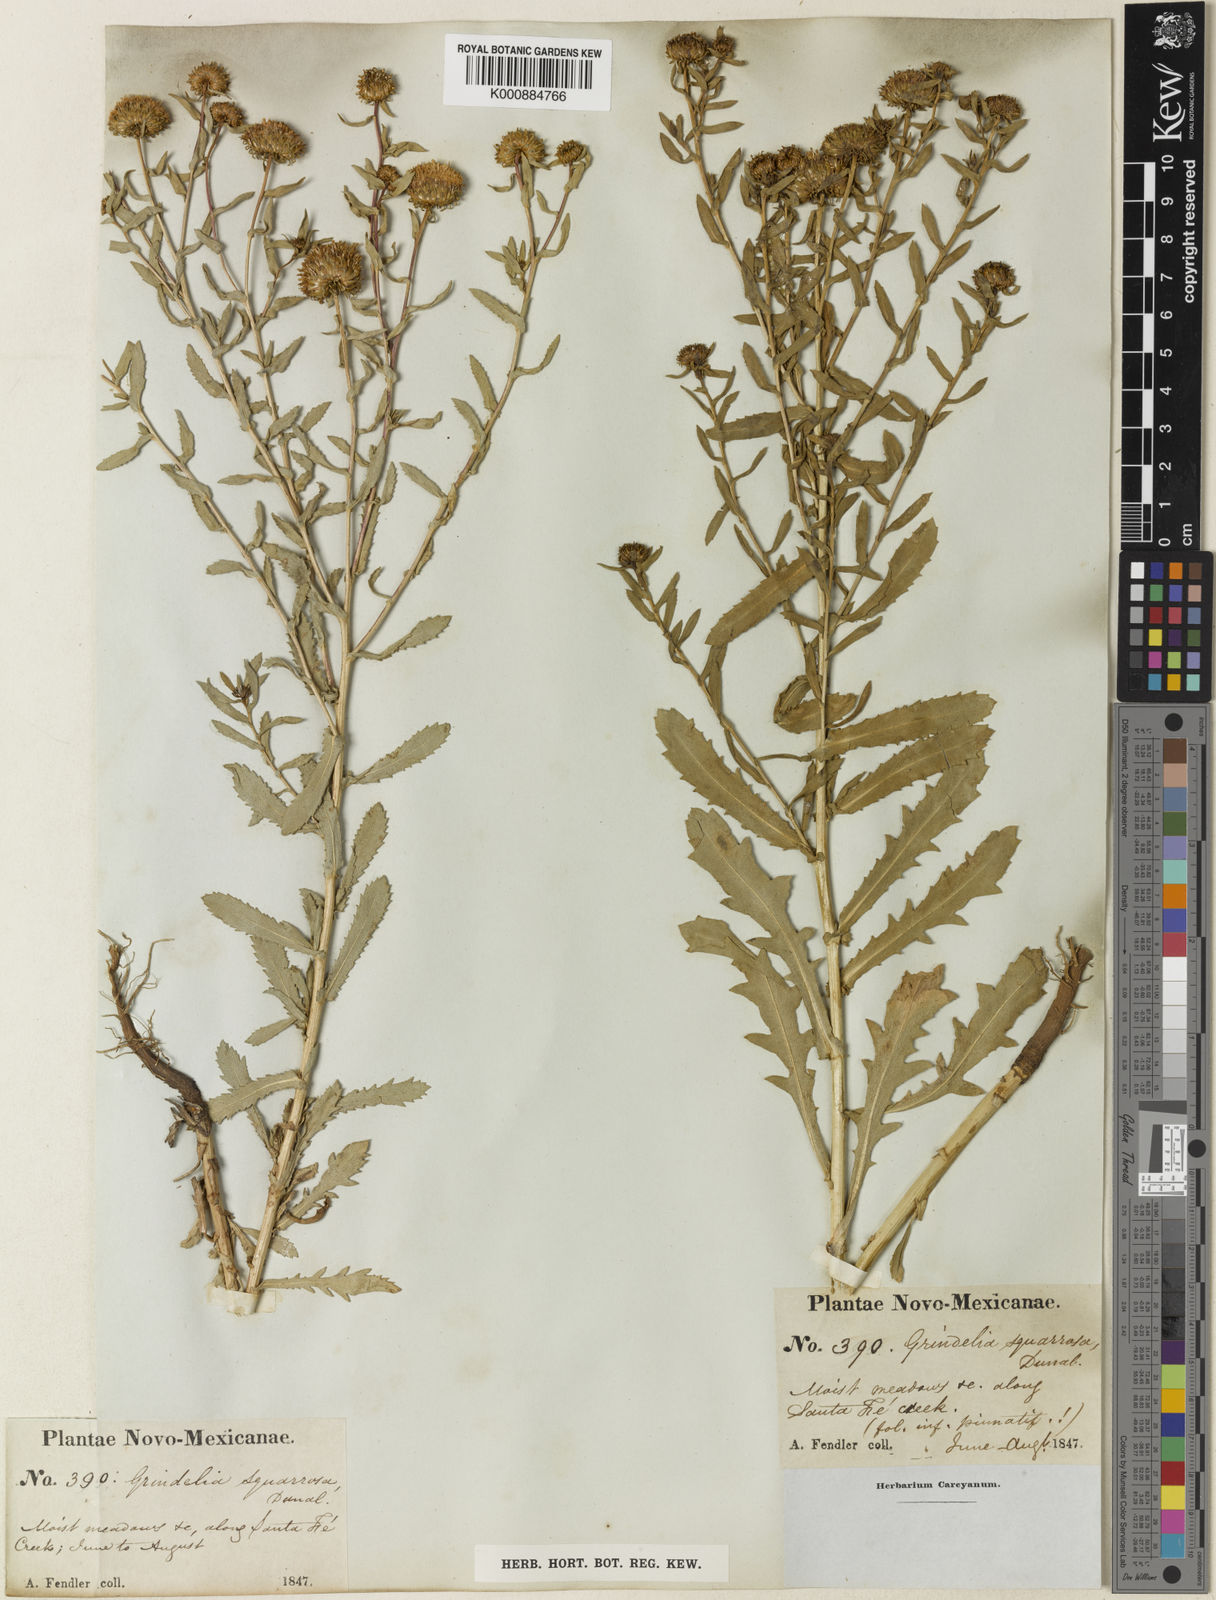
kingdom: Plantae
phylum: Tracheophyta
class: Magnoliopsida
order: Asterales
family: Asteraceae
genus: Grindelia
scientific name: Grindelia nuda
